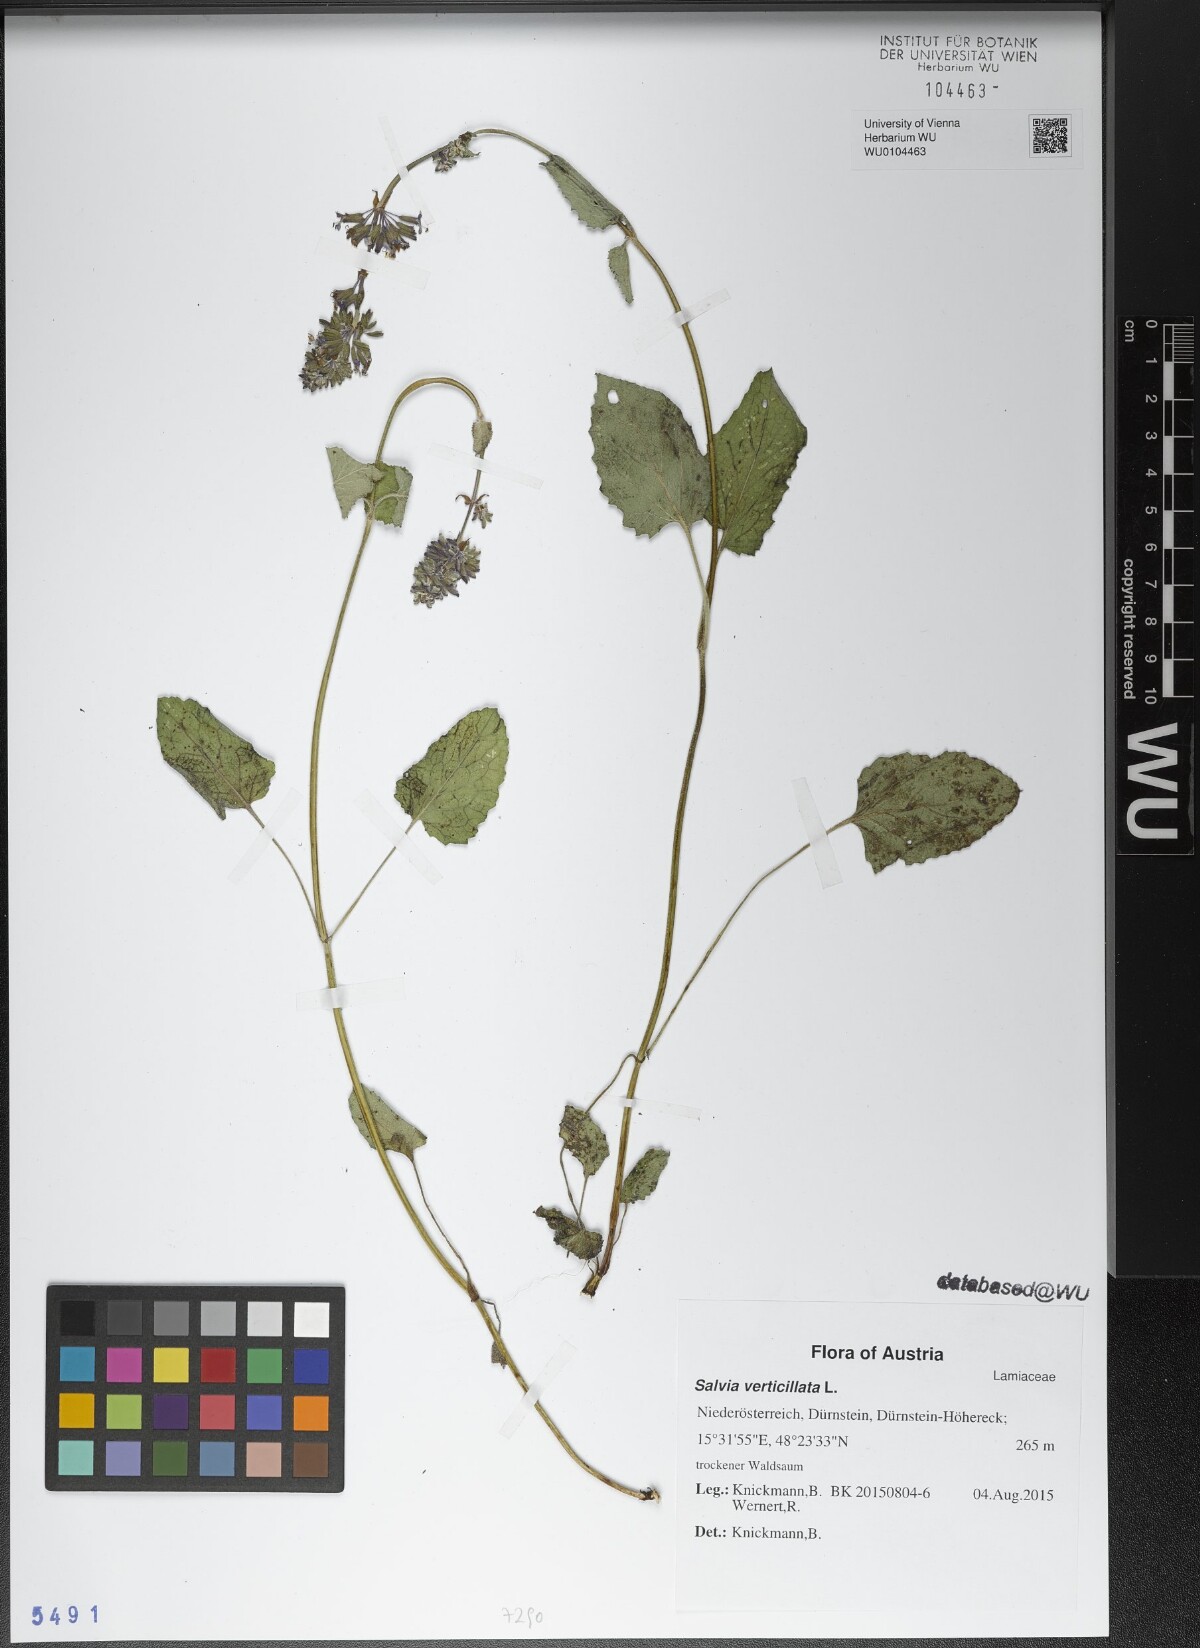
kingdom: Plantae
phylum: Tracheophyta
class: Magnoliopsida
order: Lamiales
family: Lamiaceae
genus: Salvia
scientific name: Salvia verticillata
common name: Whorled clary
